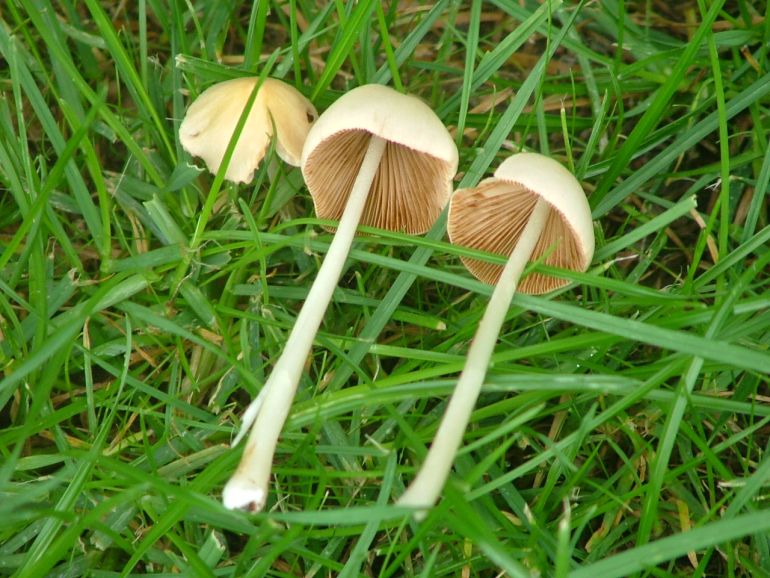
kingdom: Fungi
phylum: Basidiomycota
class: Agaricomycetes
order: Agaricales
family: Bolbitiaceae
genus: Conocybe
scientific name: Conocybe apala
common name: mælkehvid keglehat
